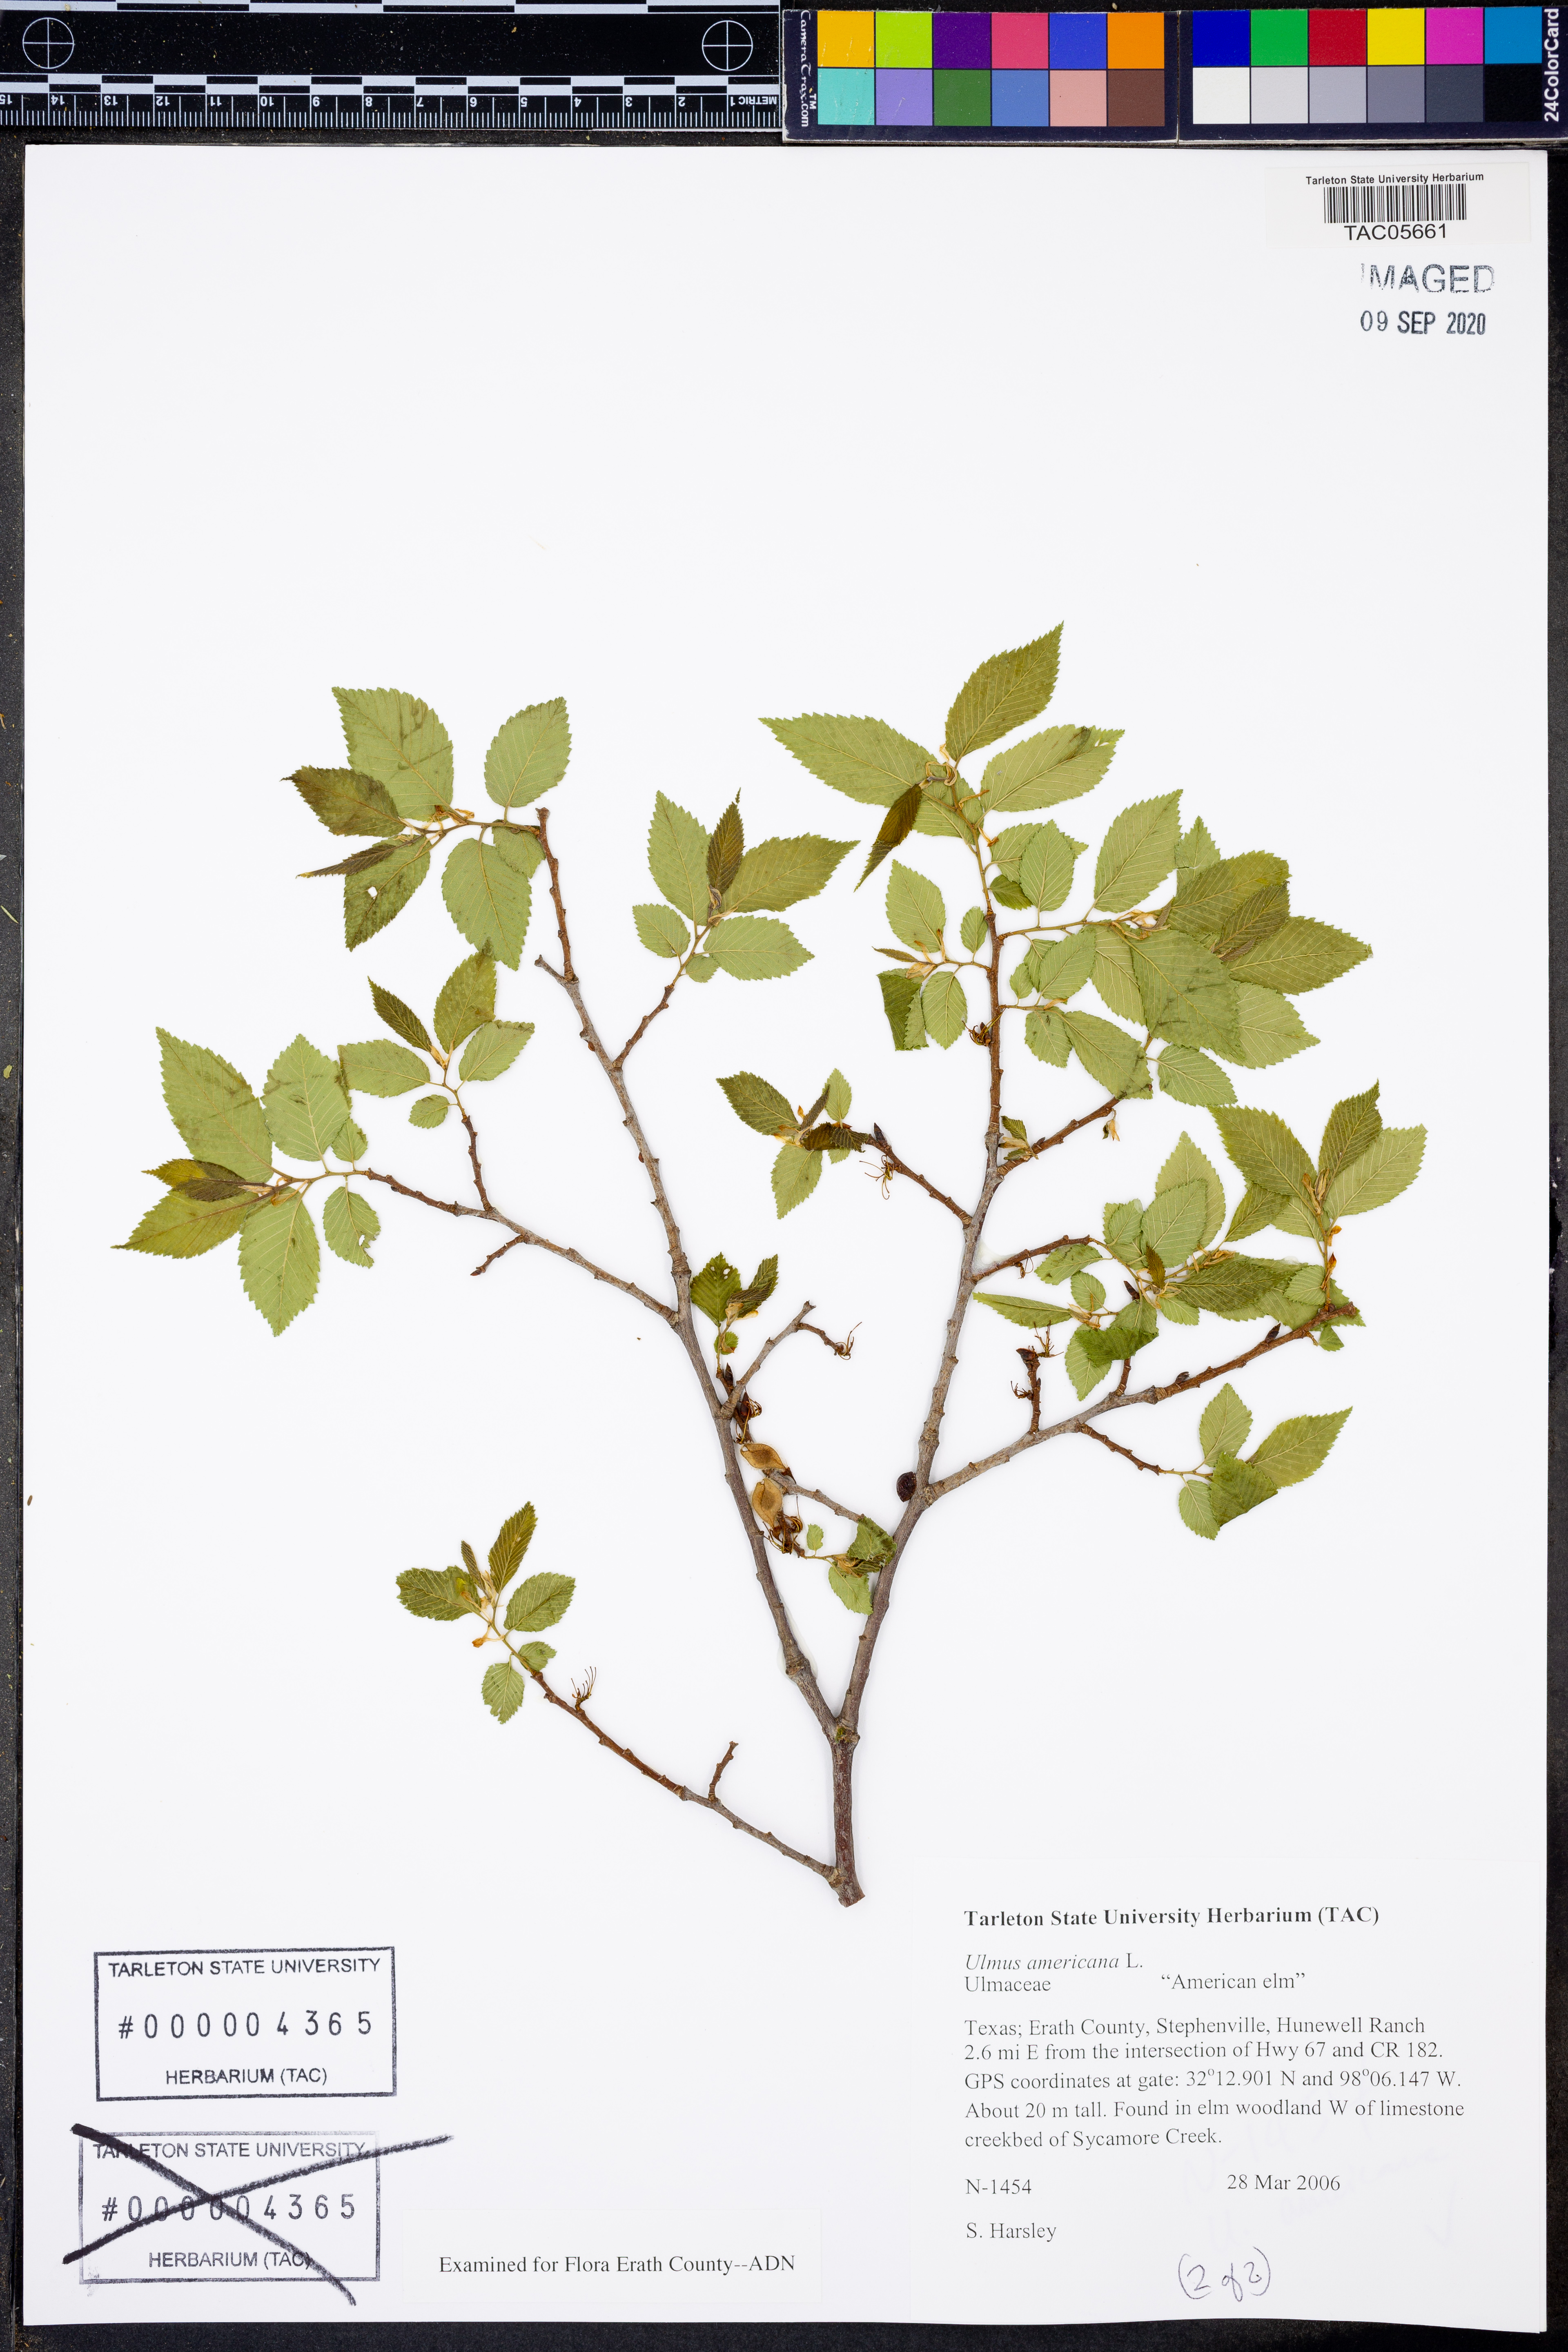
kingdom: Plantae
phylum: Tracheophyta
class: Magnoliopsida
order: Rosales
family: Ulmaceae
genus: Ulmus
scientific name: Ulmus americana
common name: American elm
